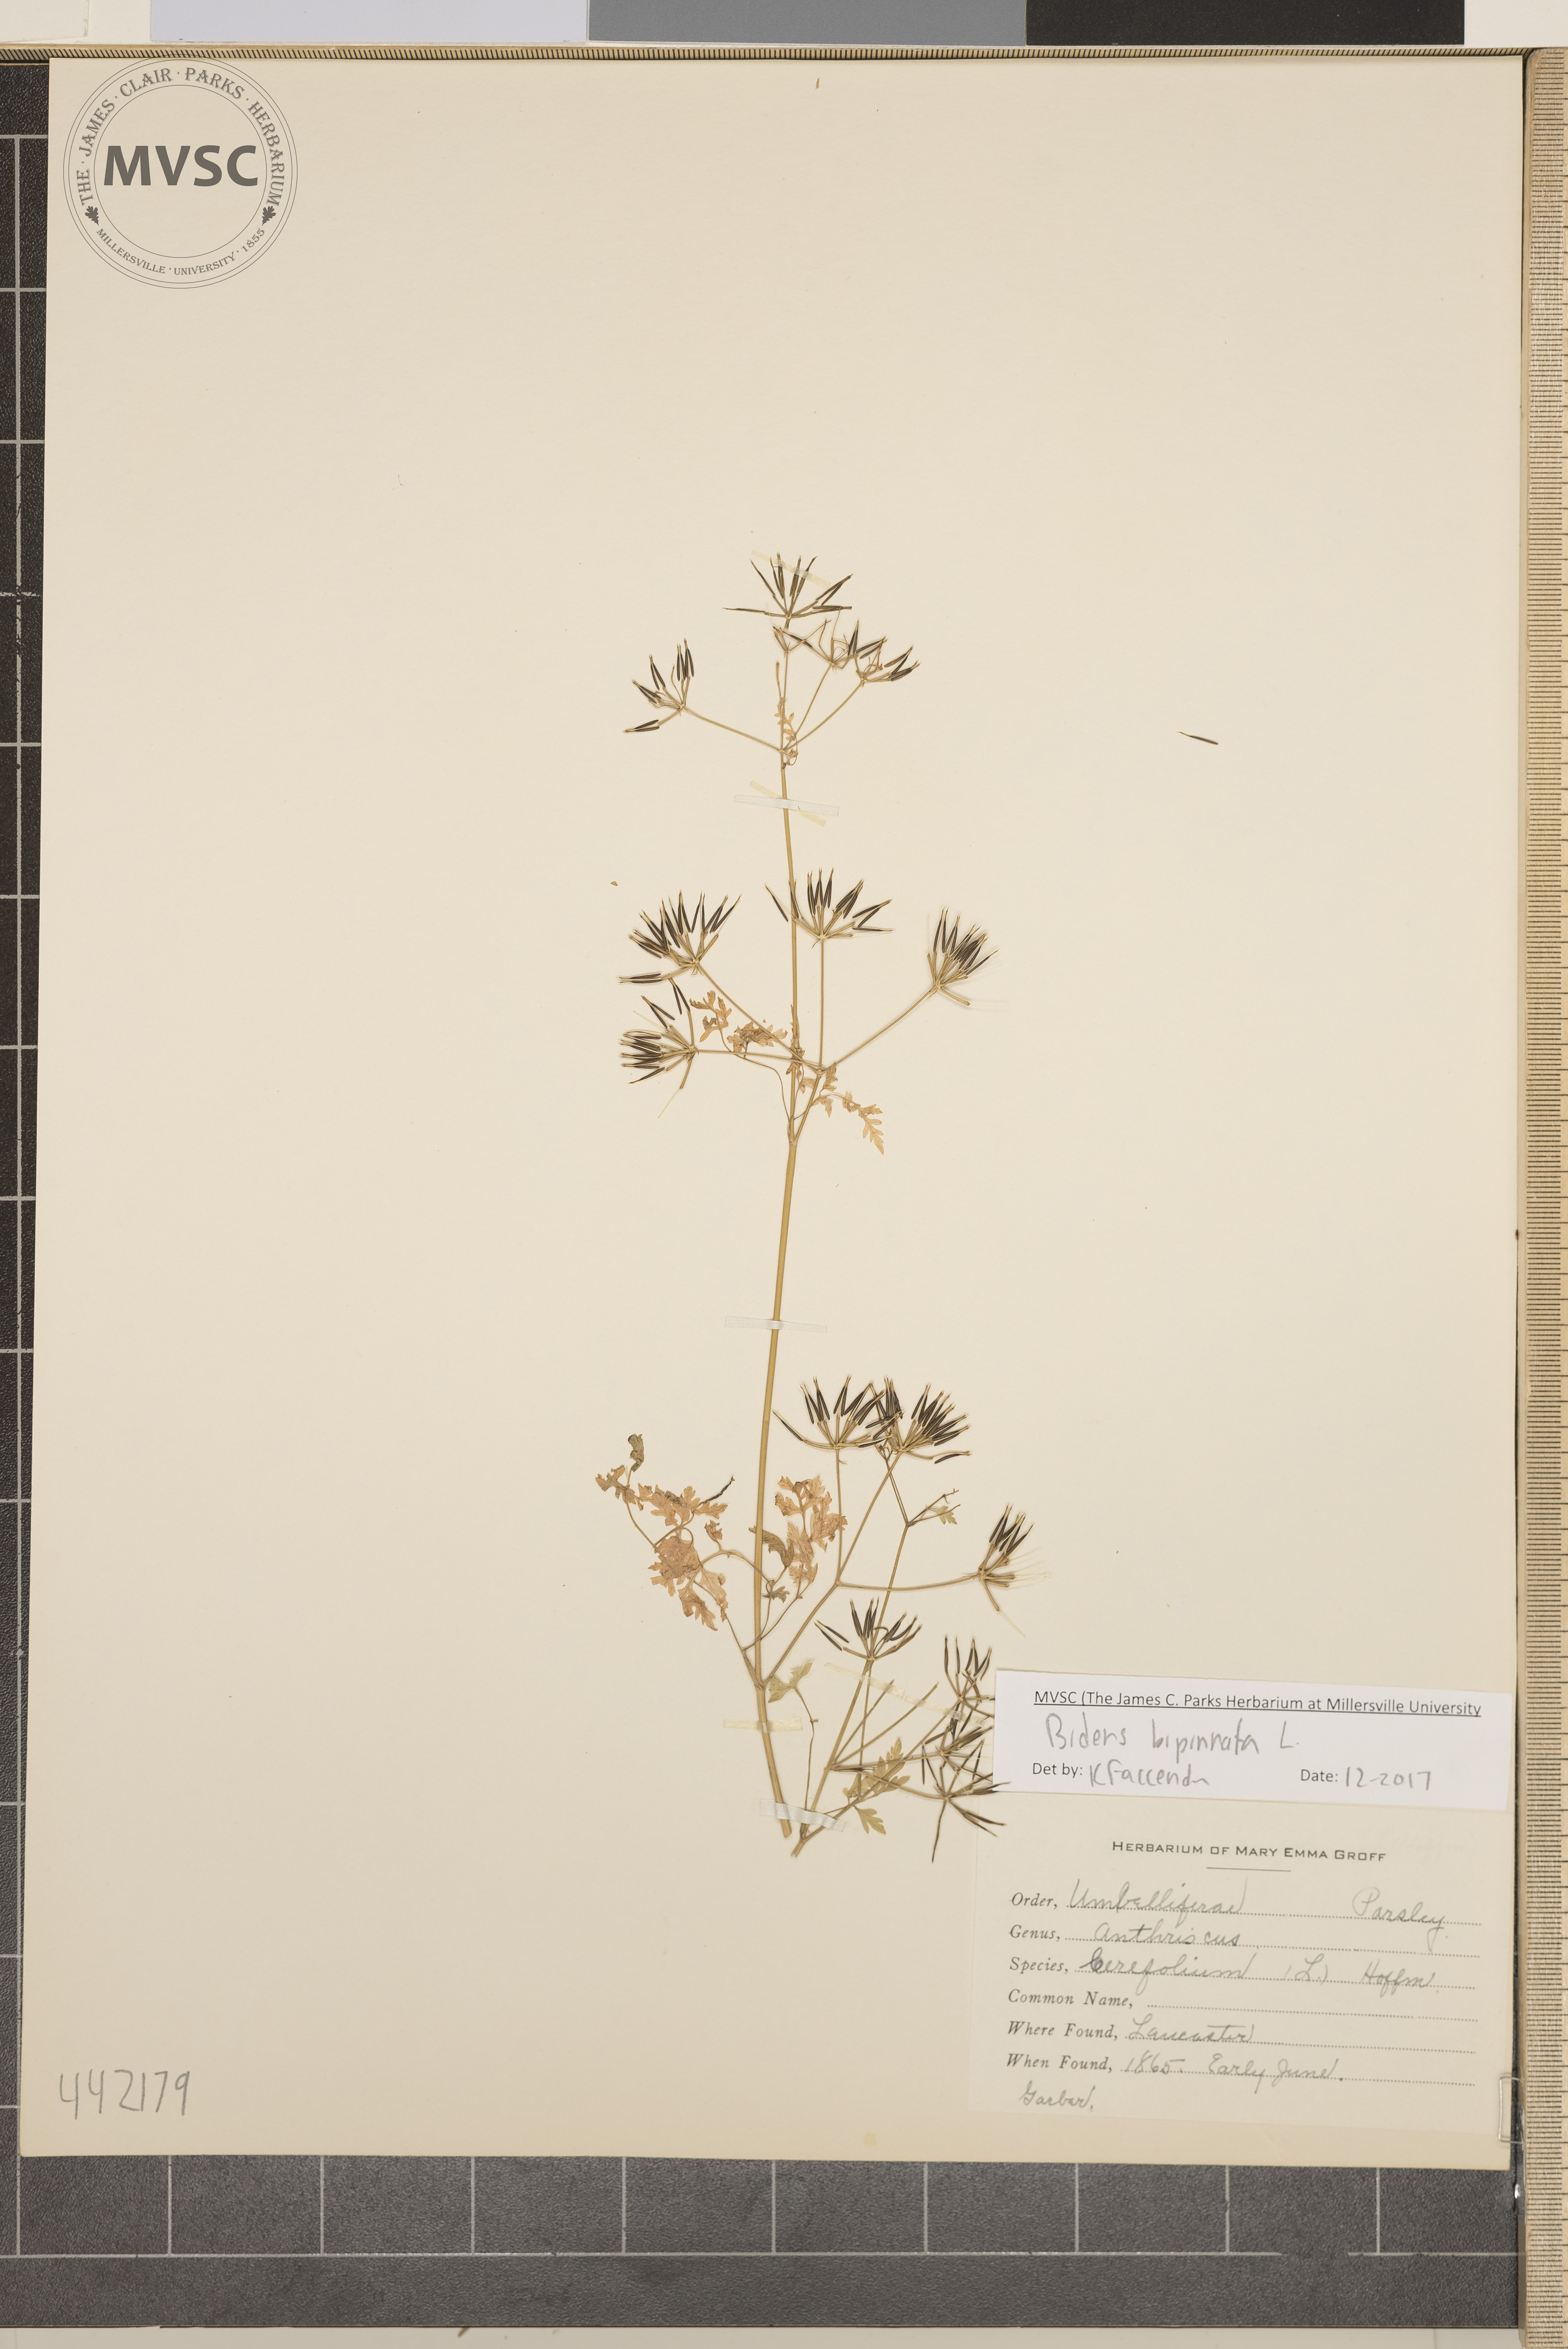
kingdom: Plantae
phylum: Tracheophyta
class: Magnoliopsida
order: Asterales
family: Asteraceae
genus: Bidens
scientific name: Bidens bipinnata
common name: Spanish-needles
